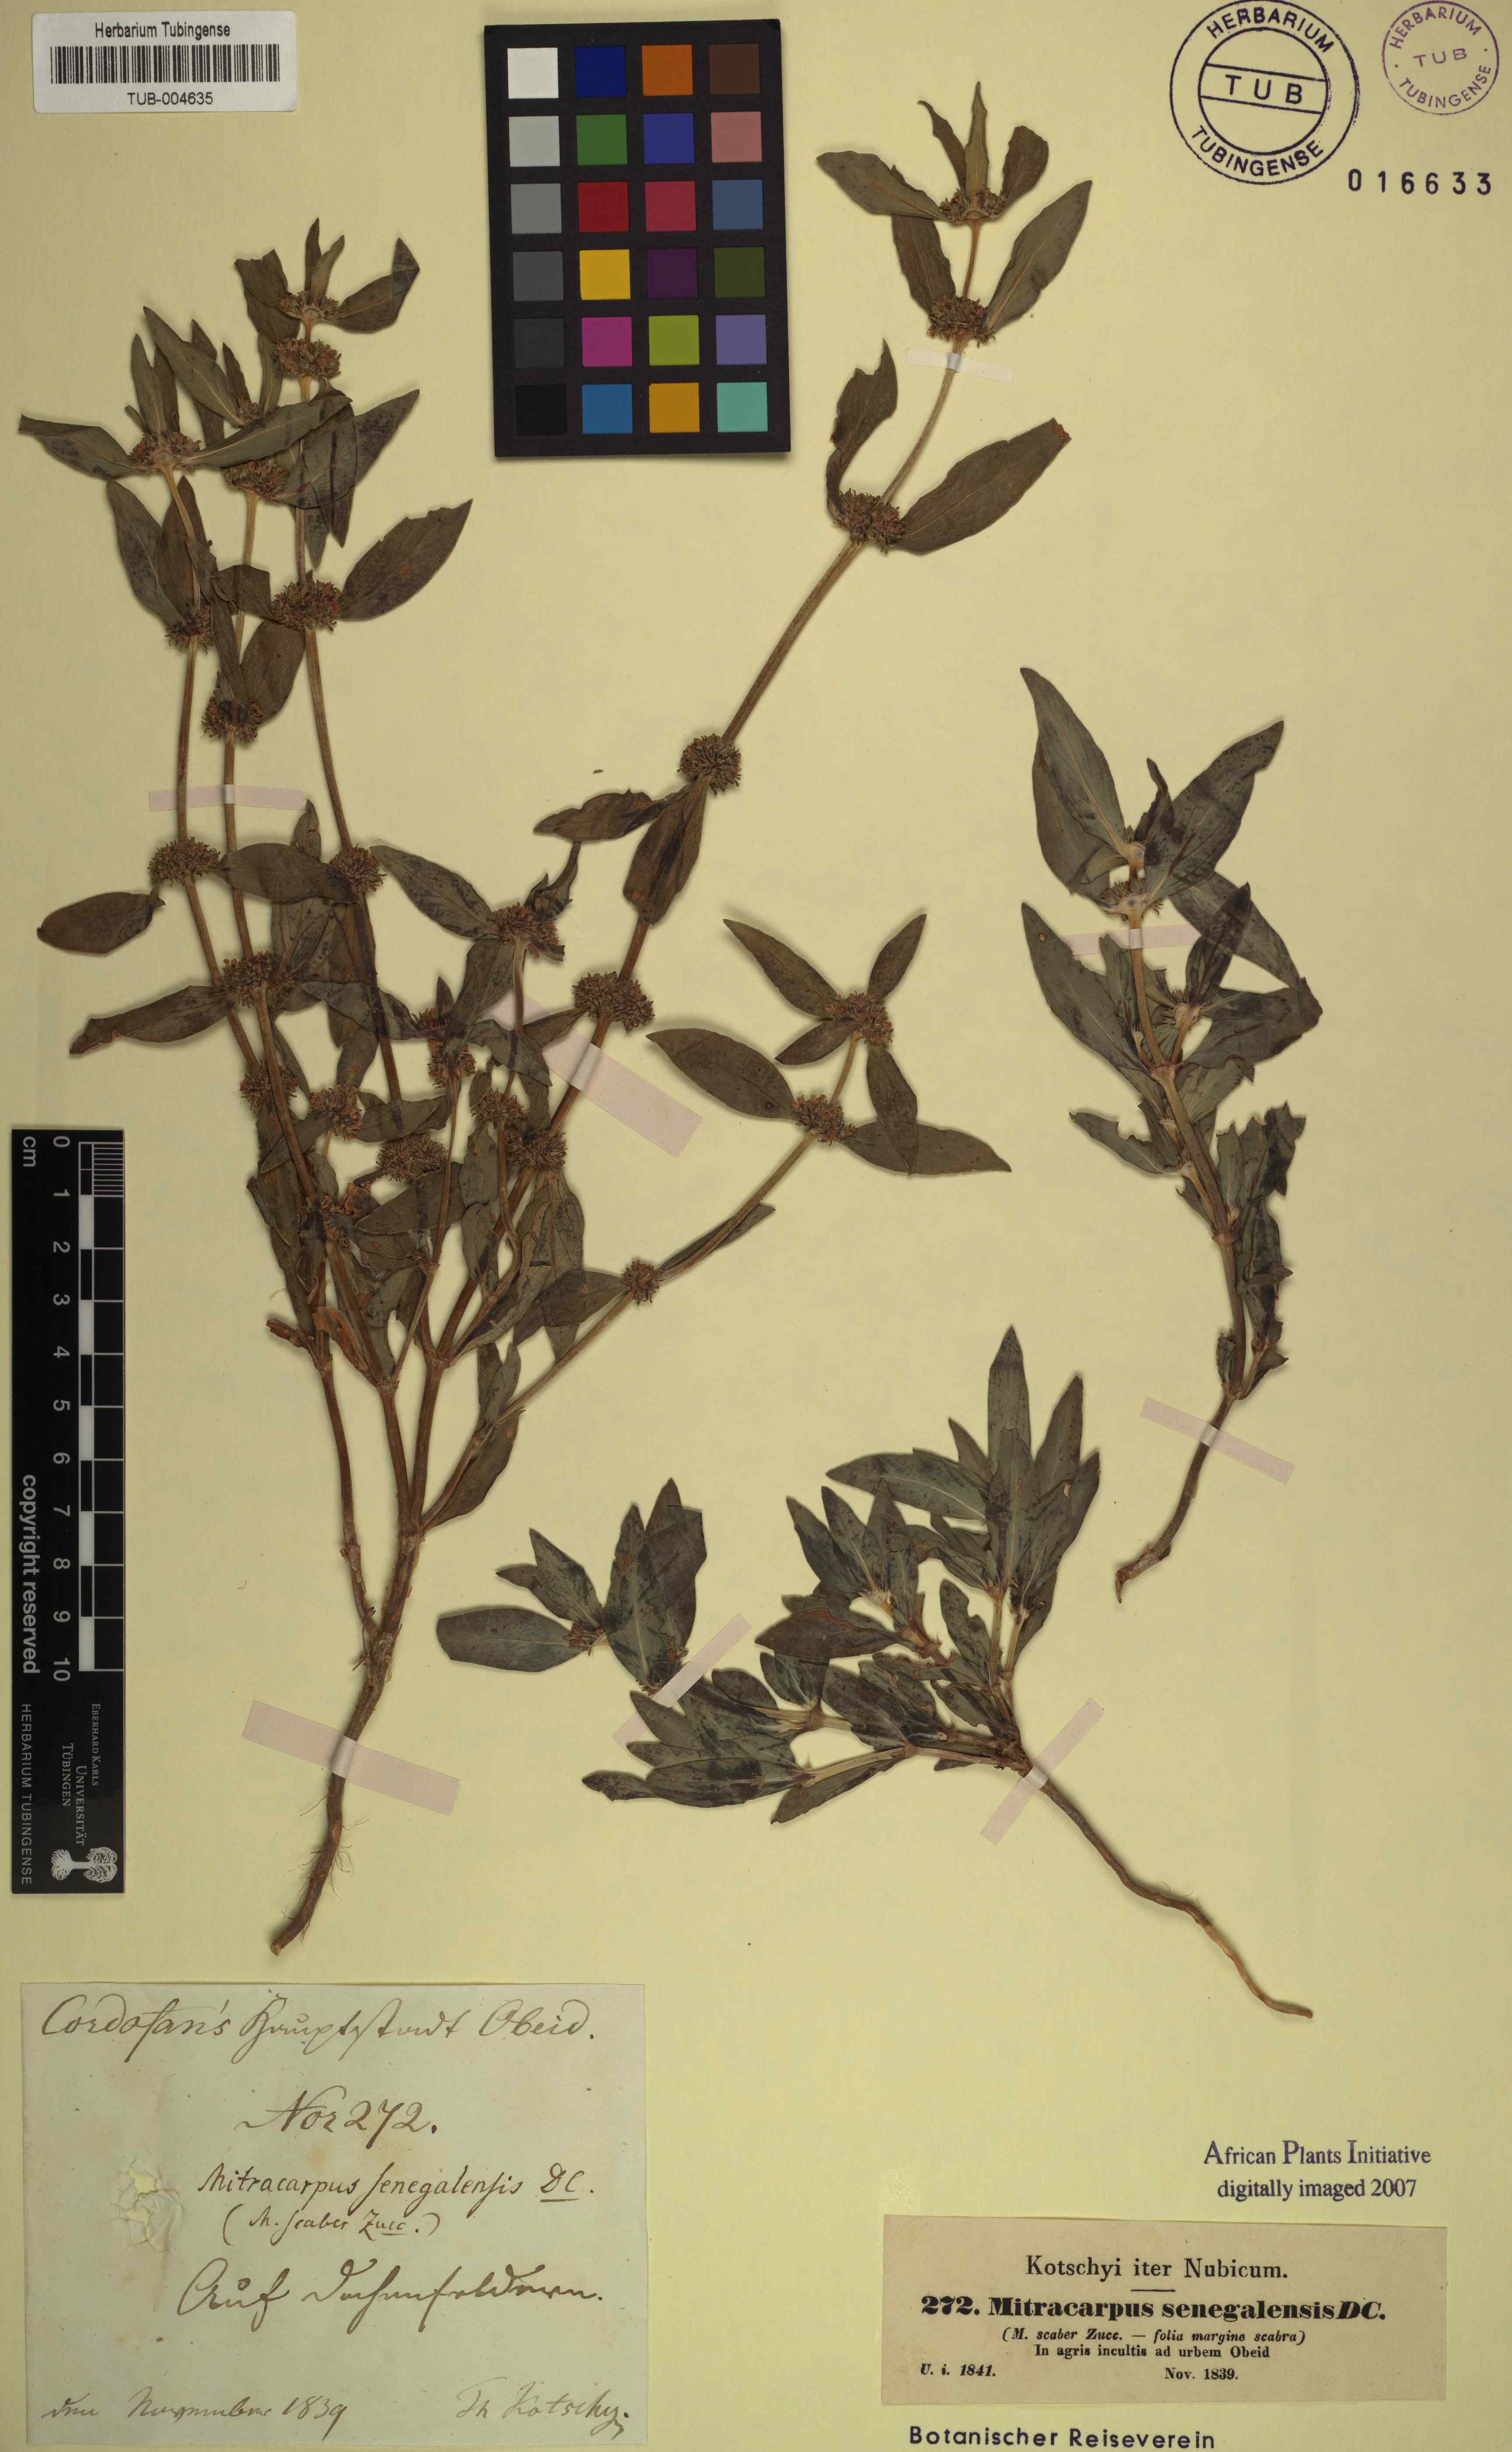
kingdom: Plantae
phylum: Tracheophyta
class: Magnoliopsida
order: Gentianales
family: Rubiaceae
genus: Mitracarpus
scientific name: Mitracarpus hirtus
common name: Tropical girdlepod
